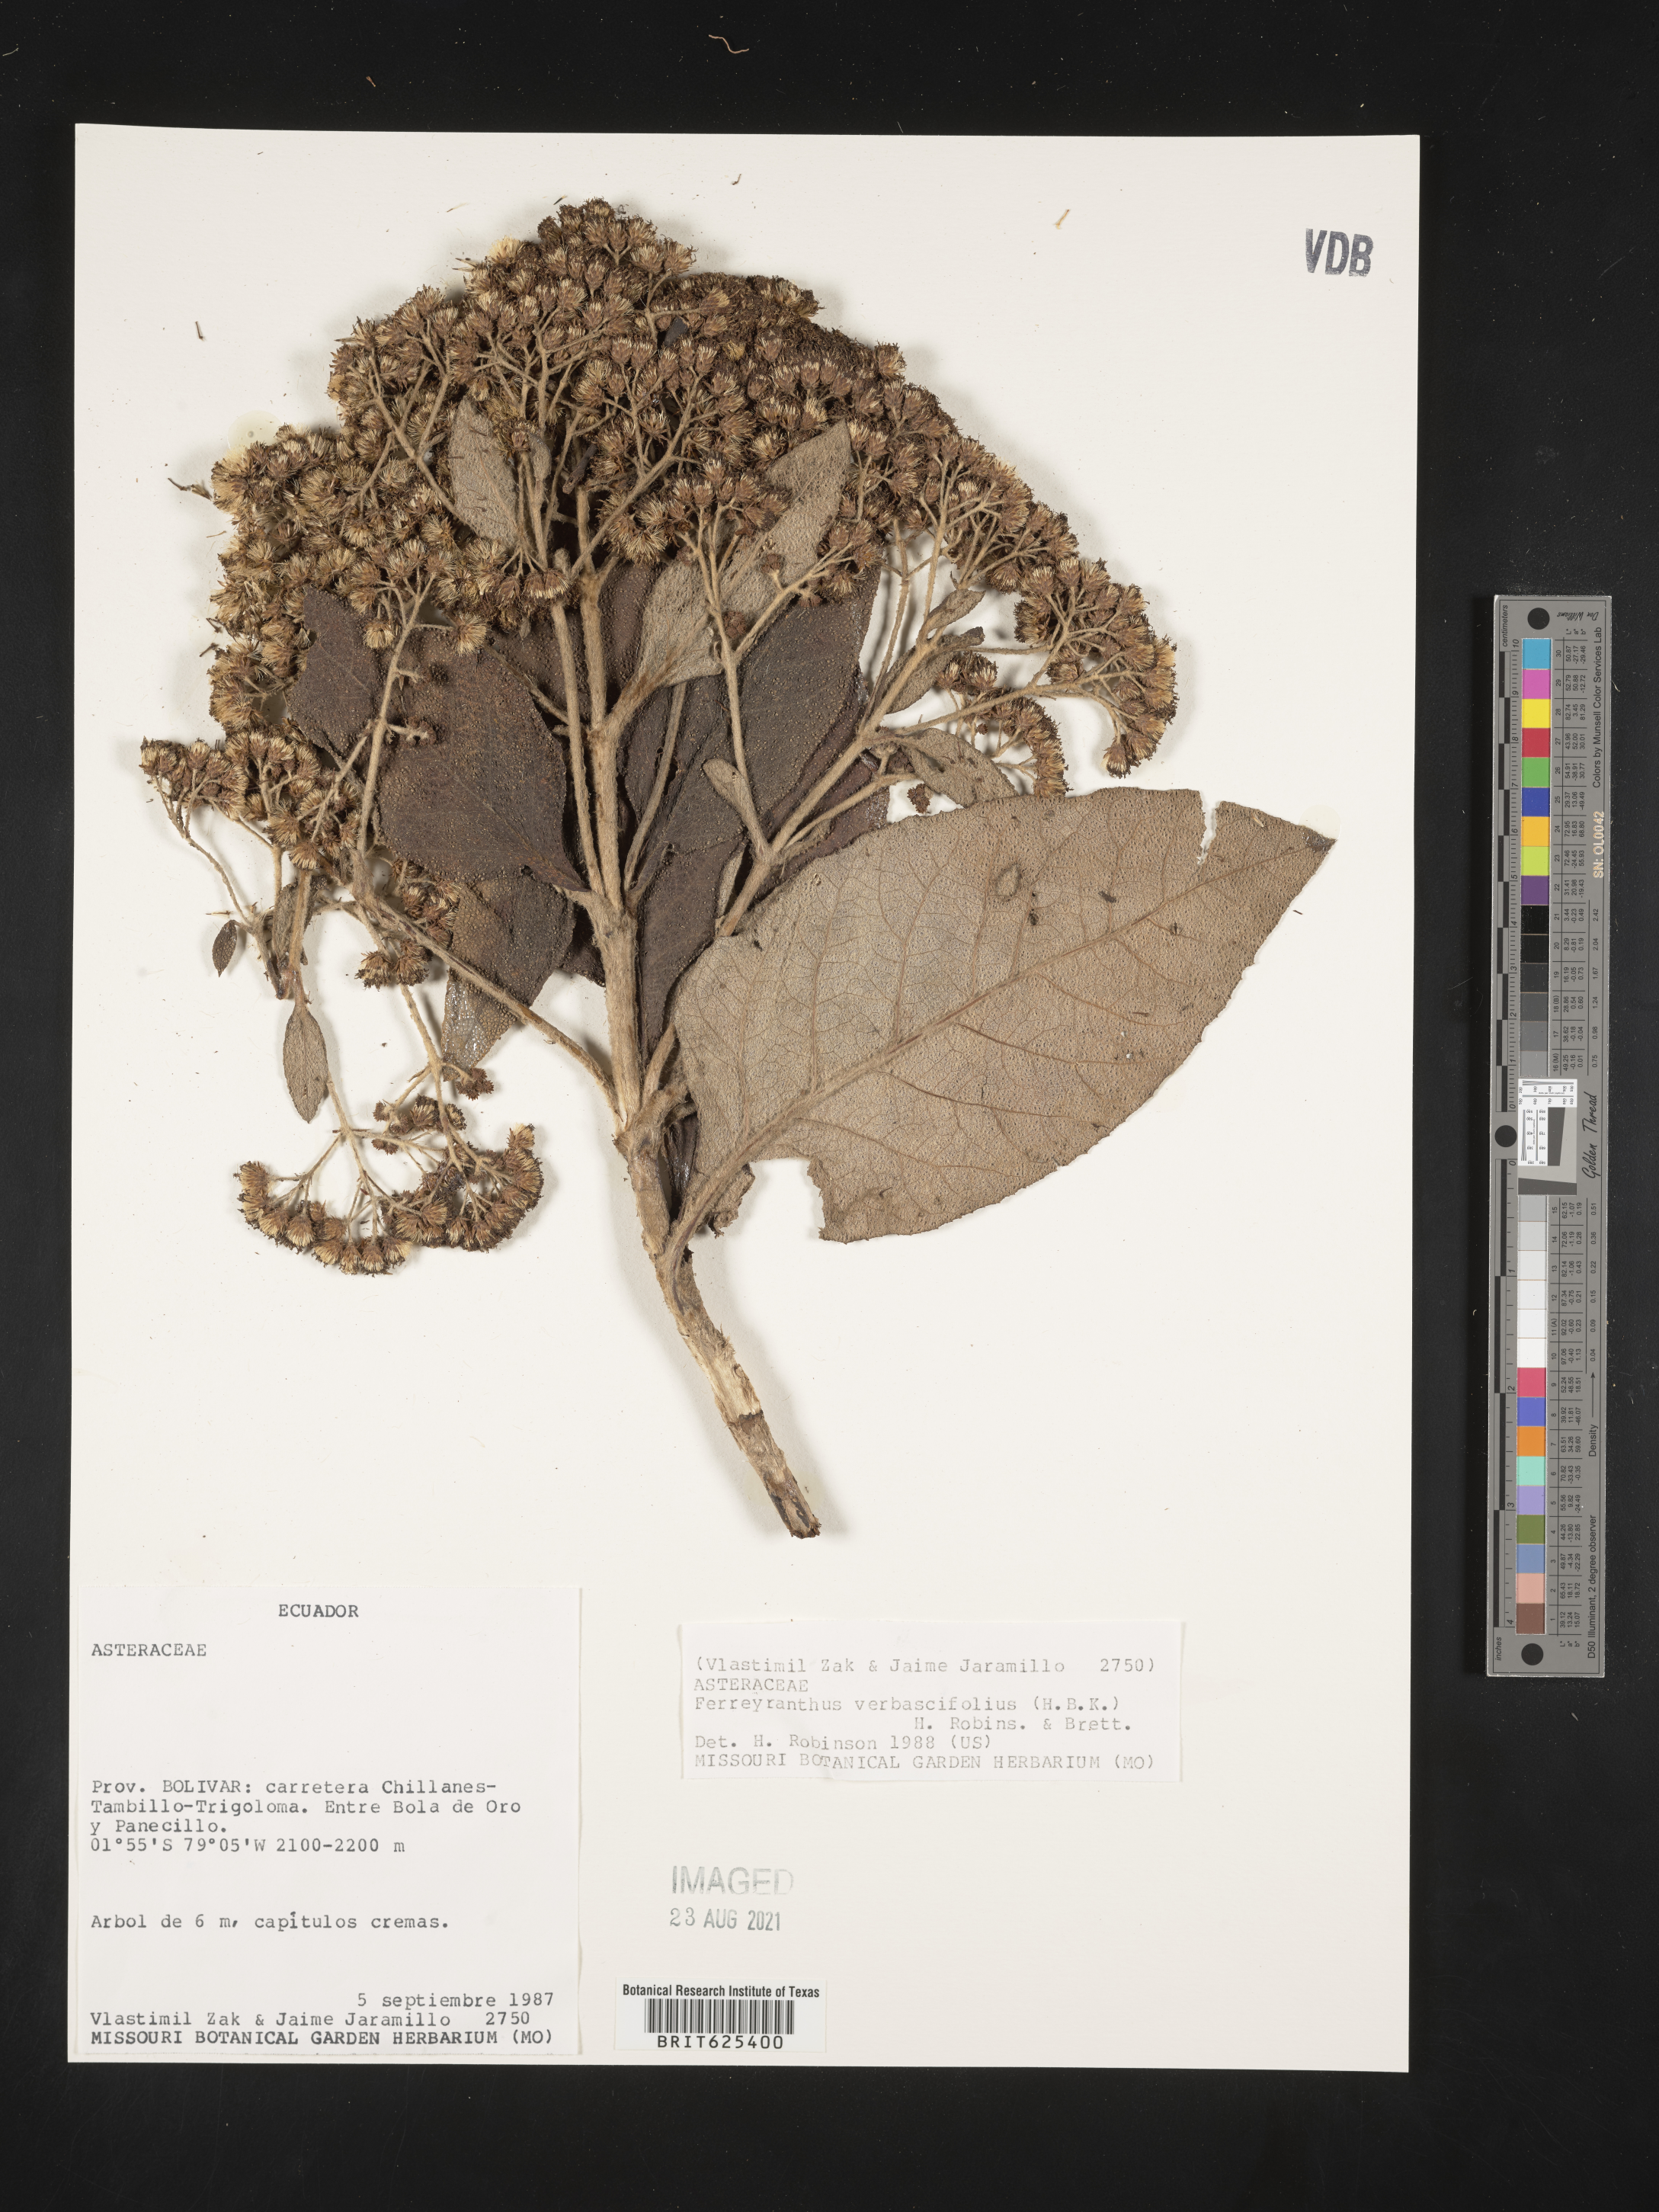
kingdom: Plantae
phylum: Tracheophyta
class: Magnoliopsida
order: Asterales
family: Asteraceae
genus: Ferreyranthus
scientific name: Ferreyranthus verbascifolius
